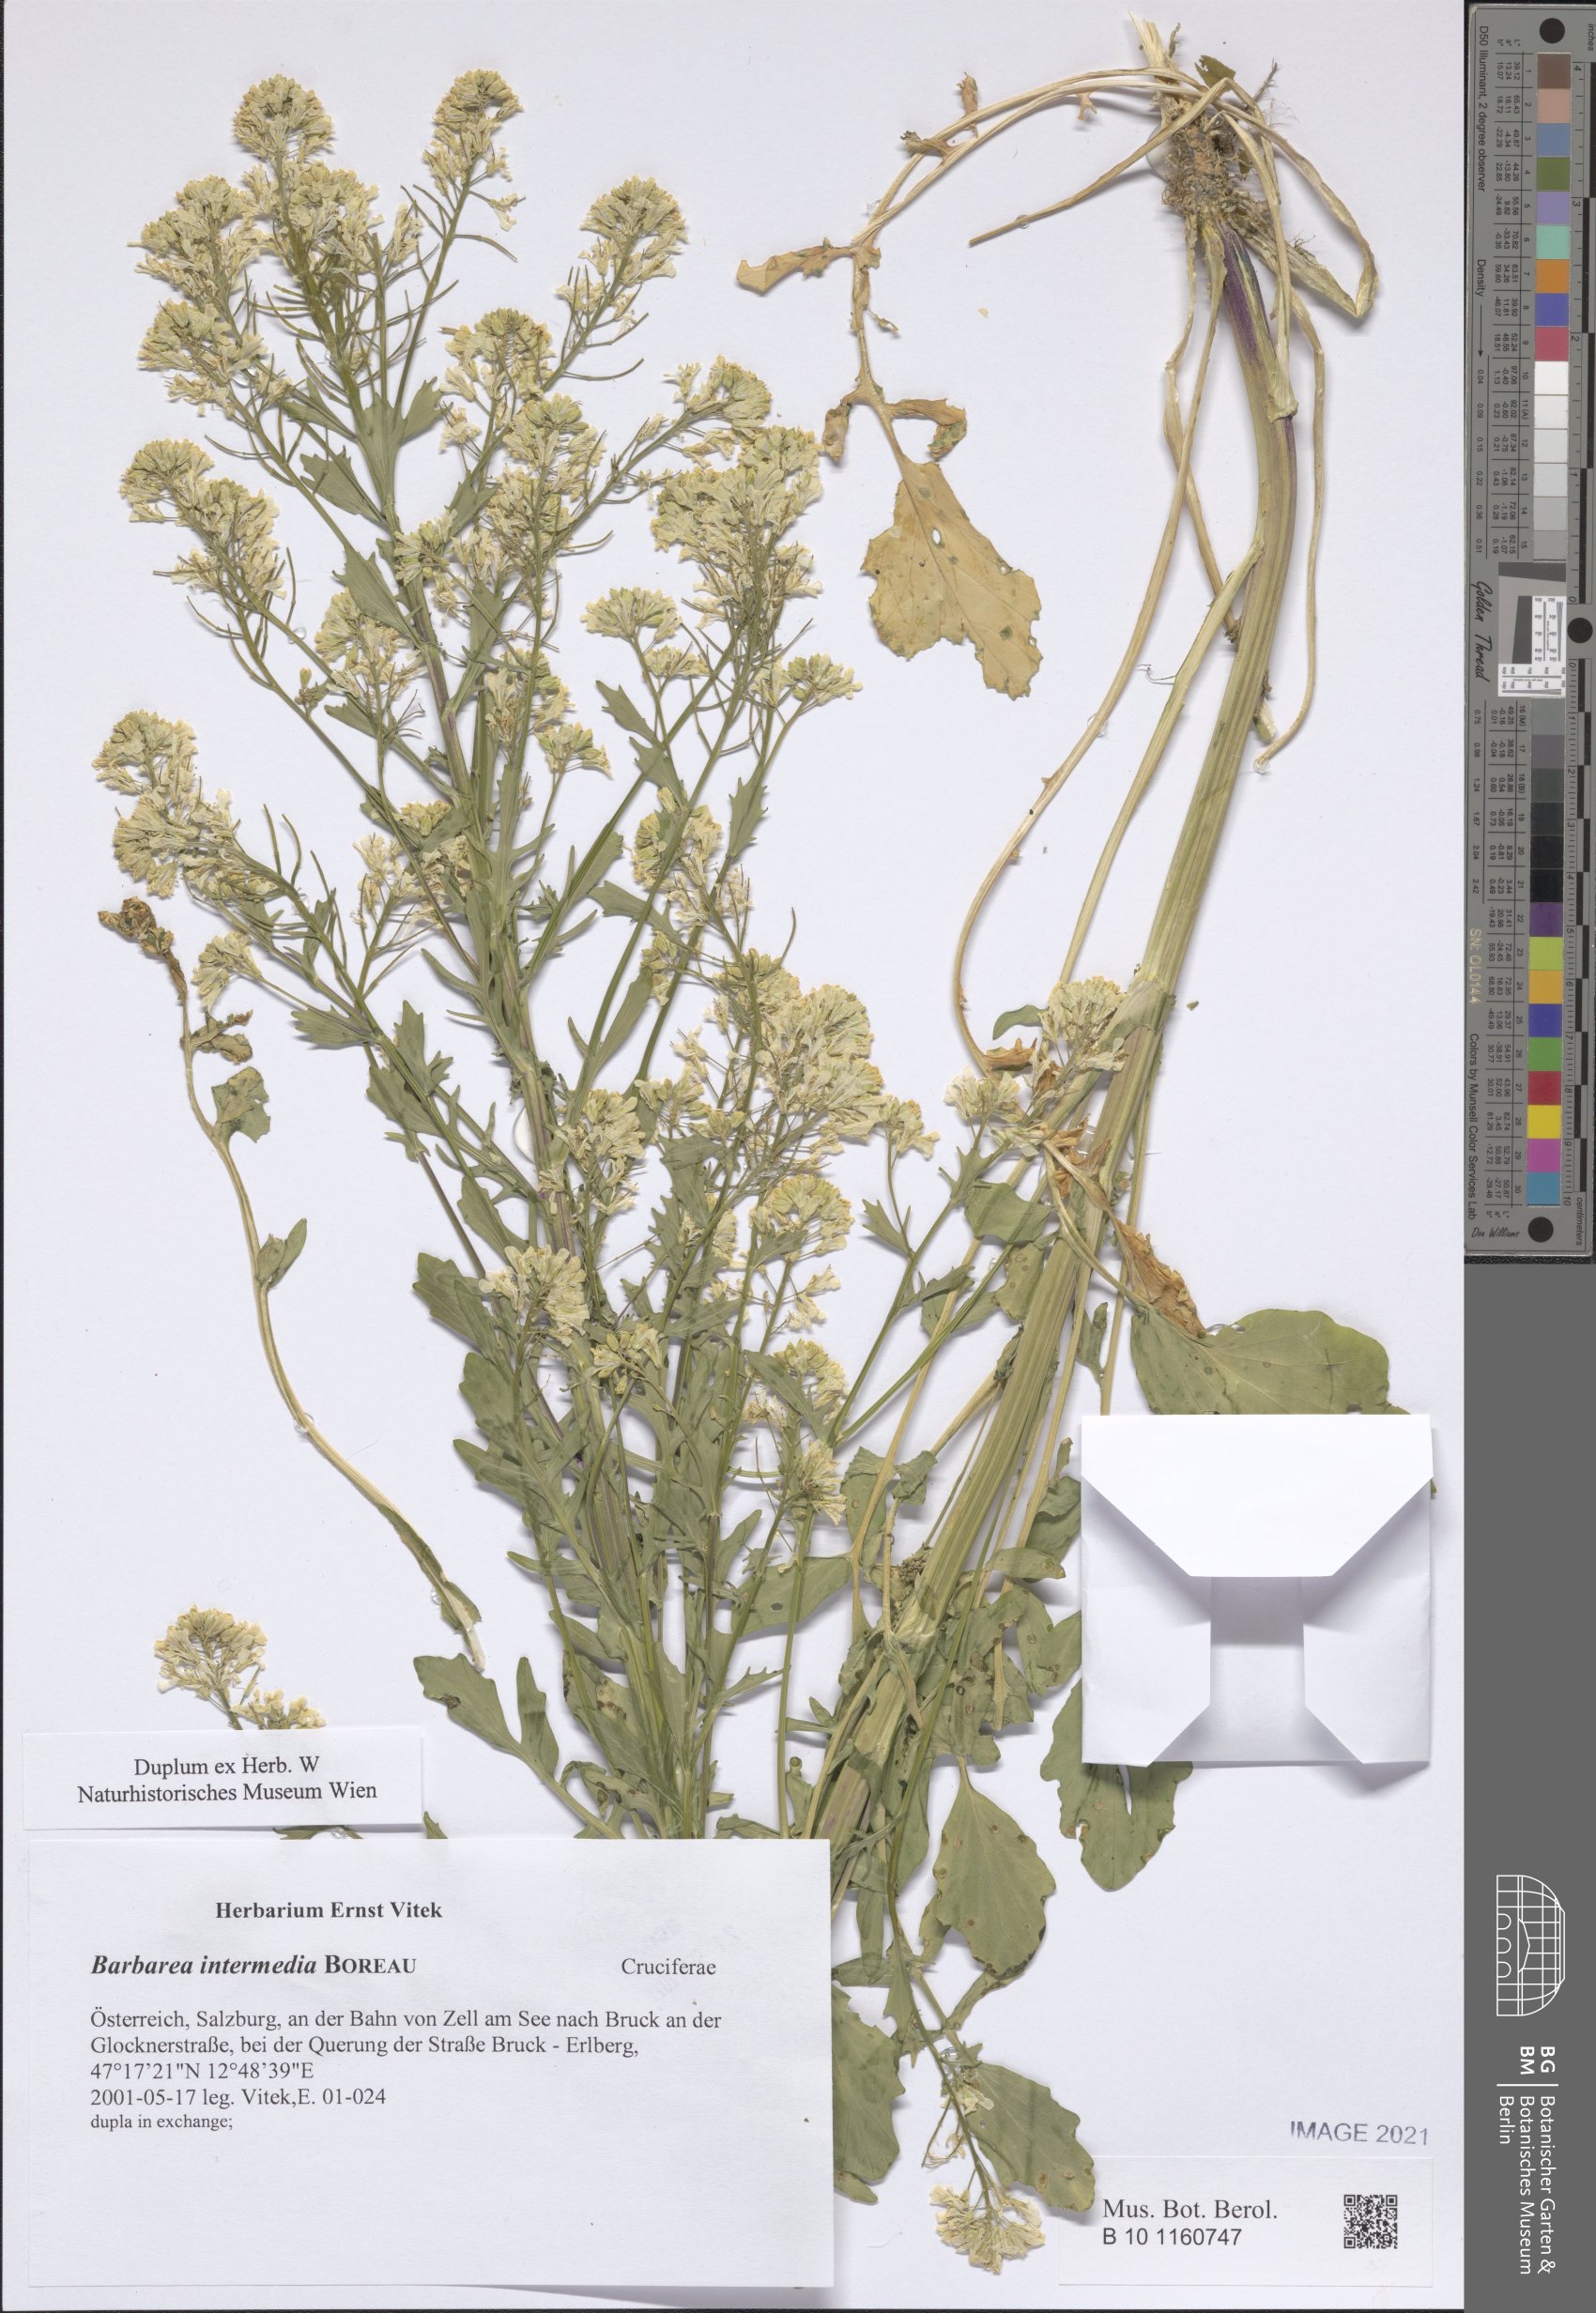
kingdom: Plantae
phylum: Tracheophyta
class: Magnoliopsida
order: Brassicales
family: Brassicaceae
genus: Barbarea
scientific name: Barbarea intermedia
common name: Medium-flowered winter-cress
